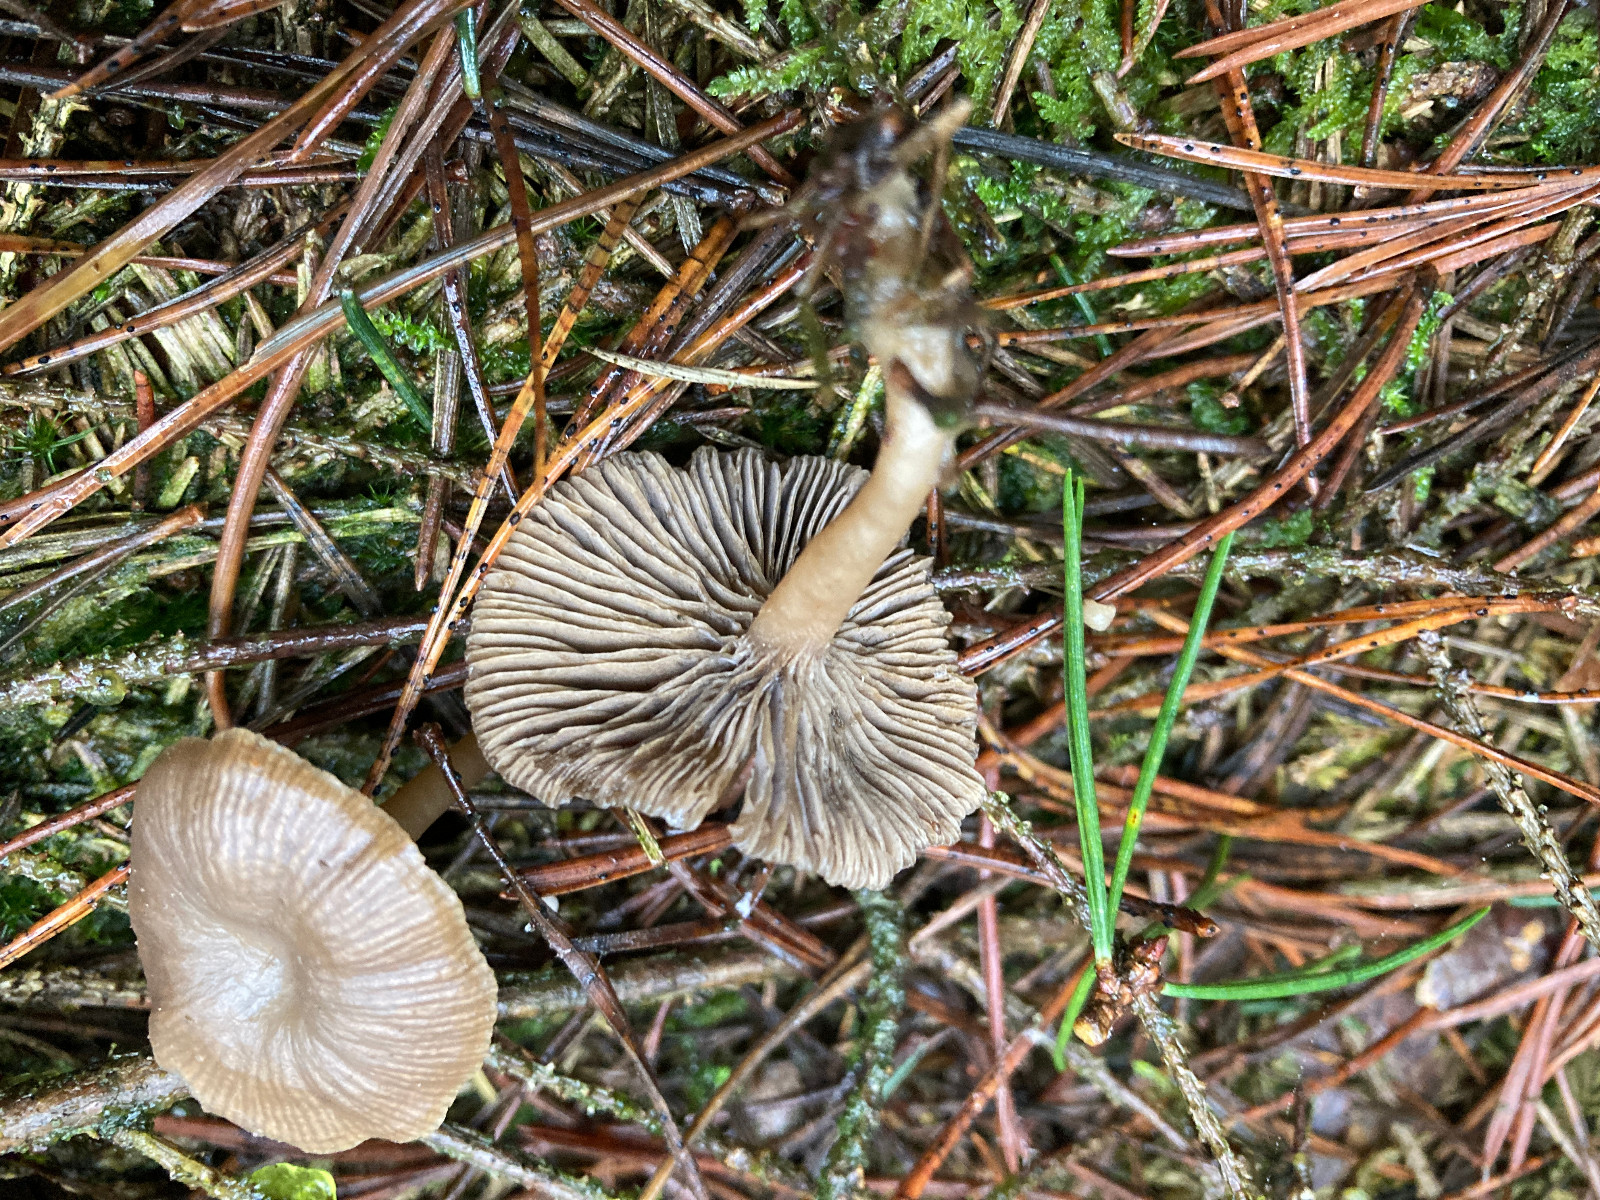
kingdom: Fungi
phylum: Basidiomycota
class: Agaricomycetes
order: Agaricales
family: Tricholomataceae
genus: Clitocybe
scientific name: Clitocybe vibecina
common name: randstribet tragthat
